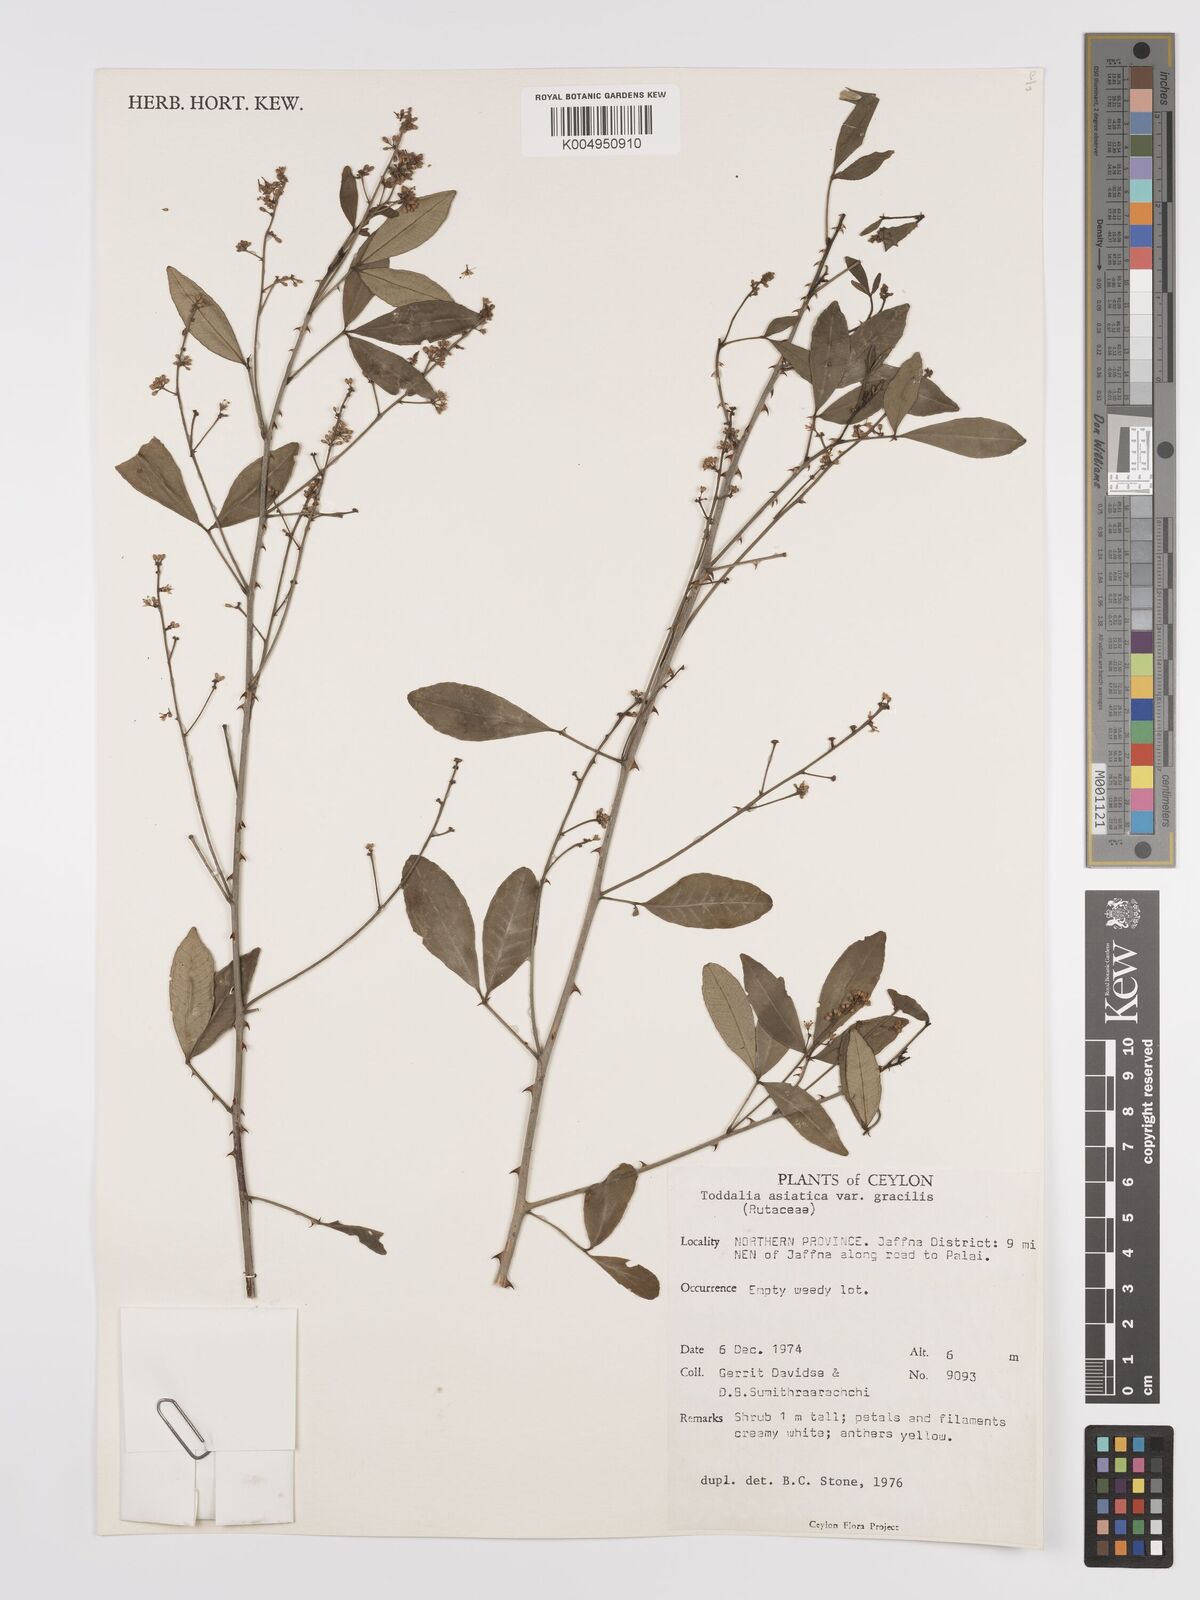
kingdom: Plantae
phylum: Tracheophyta
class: Magnoliopsida
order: Sapindales
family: Rutaceae
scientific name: Rutaceae
